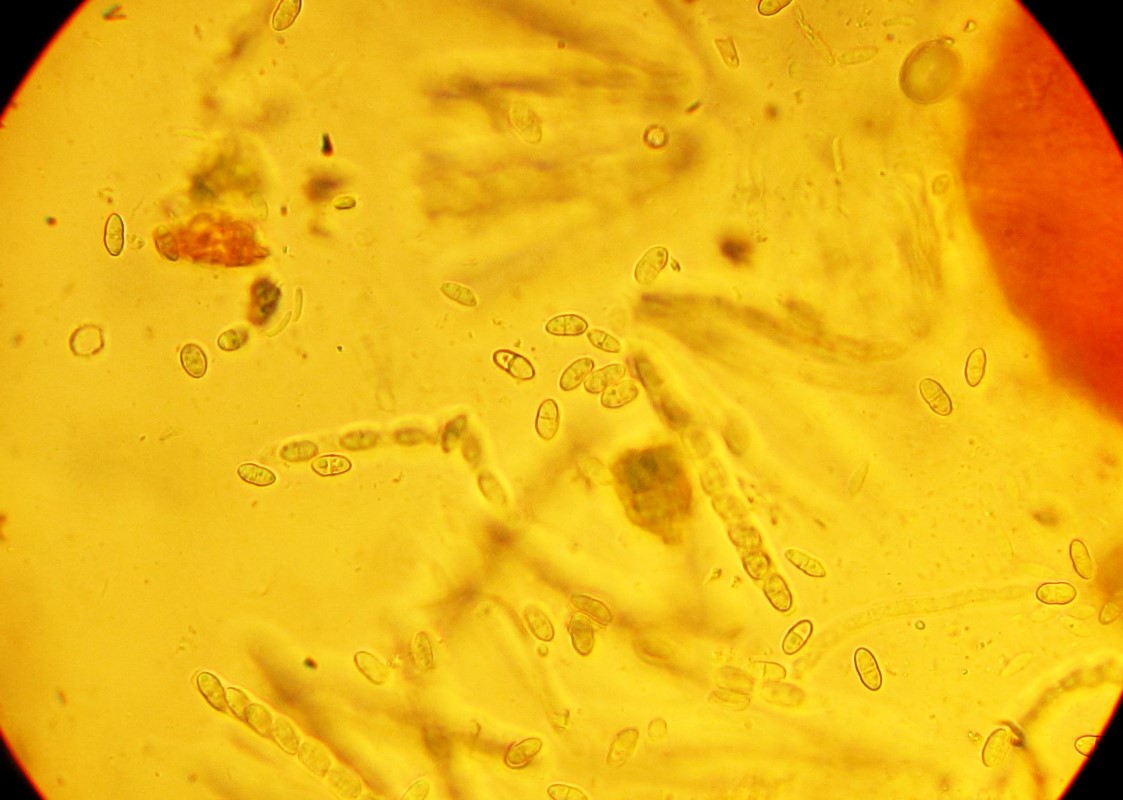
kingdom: Fungi
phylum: Ascomycota
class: Sordariomycetes
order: Hypocreales
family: Nectriaceae
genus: Neonectria
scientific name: Neonectria
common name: cinnobersvamp
